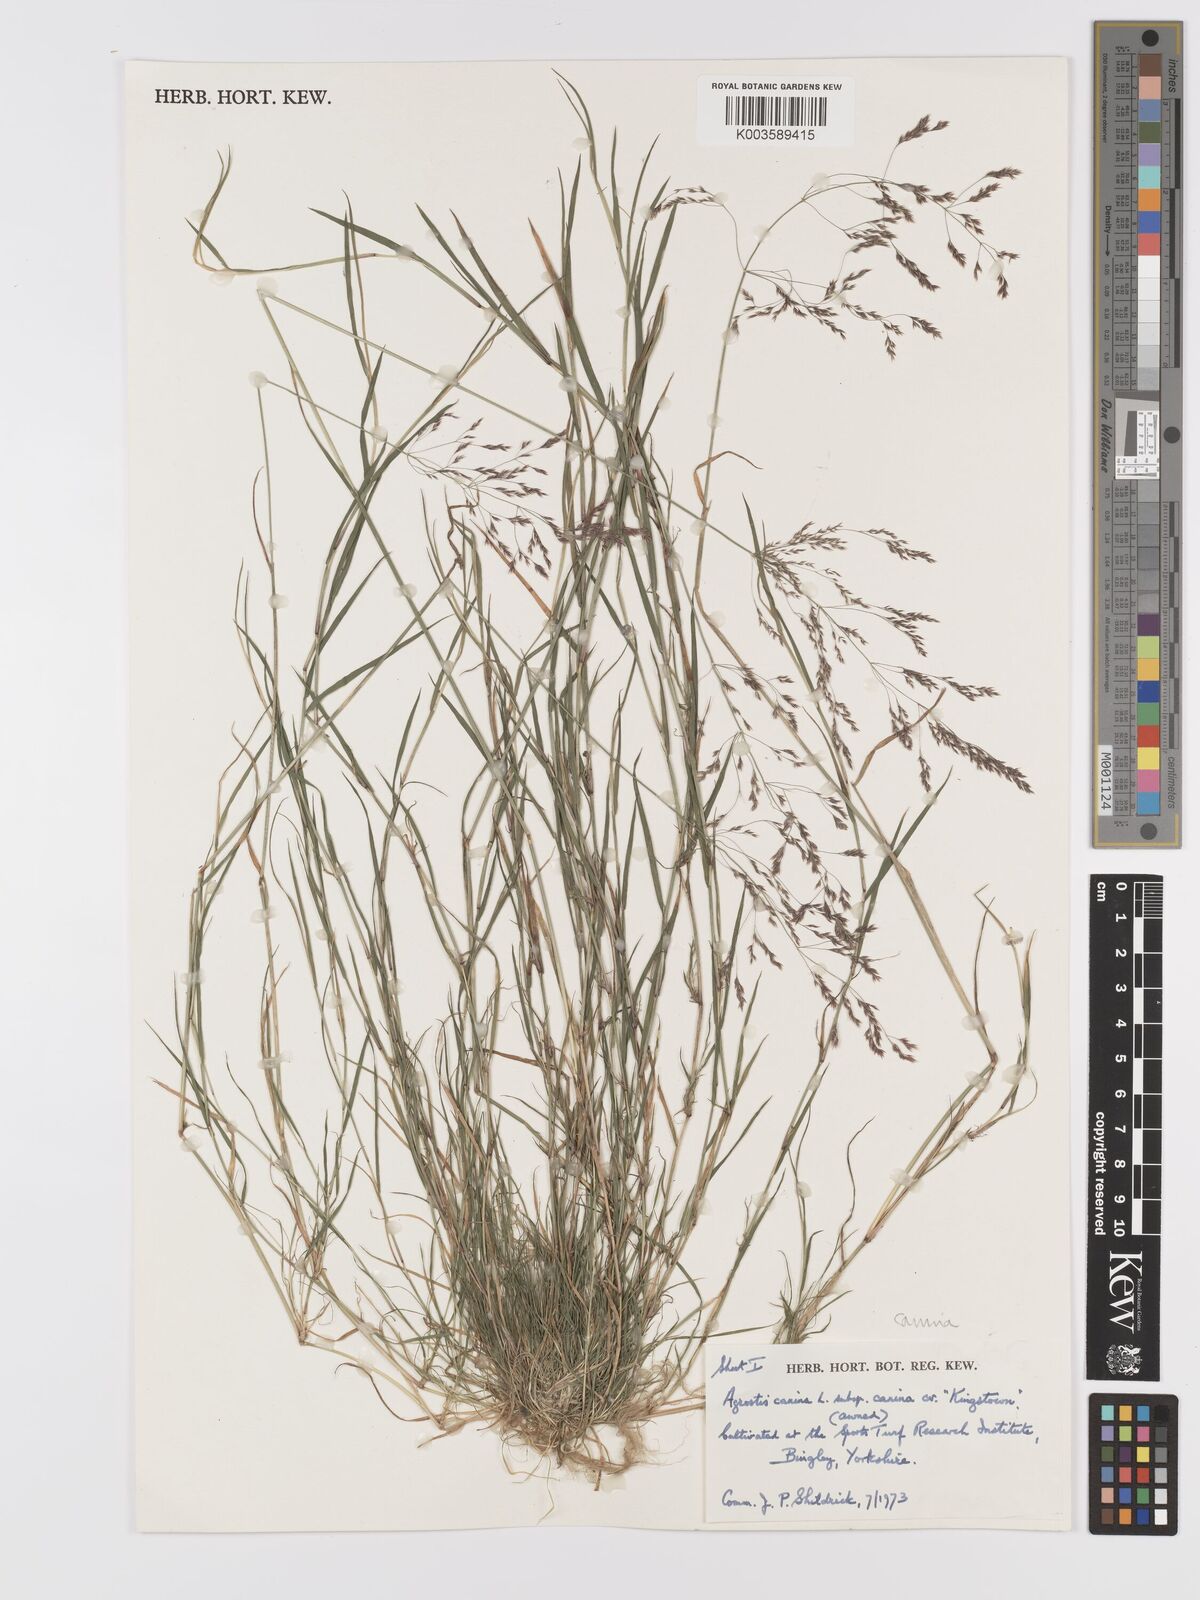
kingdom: Plantae
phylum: Tracheophyta
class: Liliopsida
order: Poales
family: Poaceae
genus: Agrostis
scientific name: Agrostis canina
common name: Velvet bent
